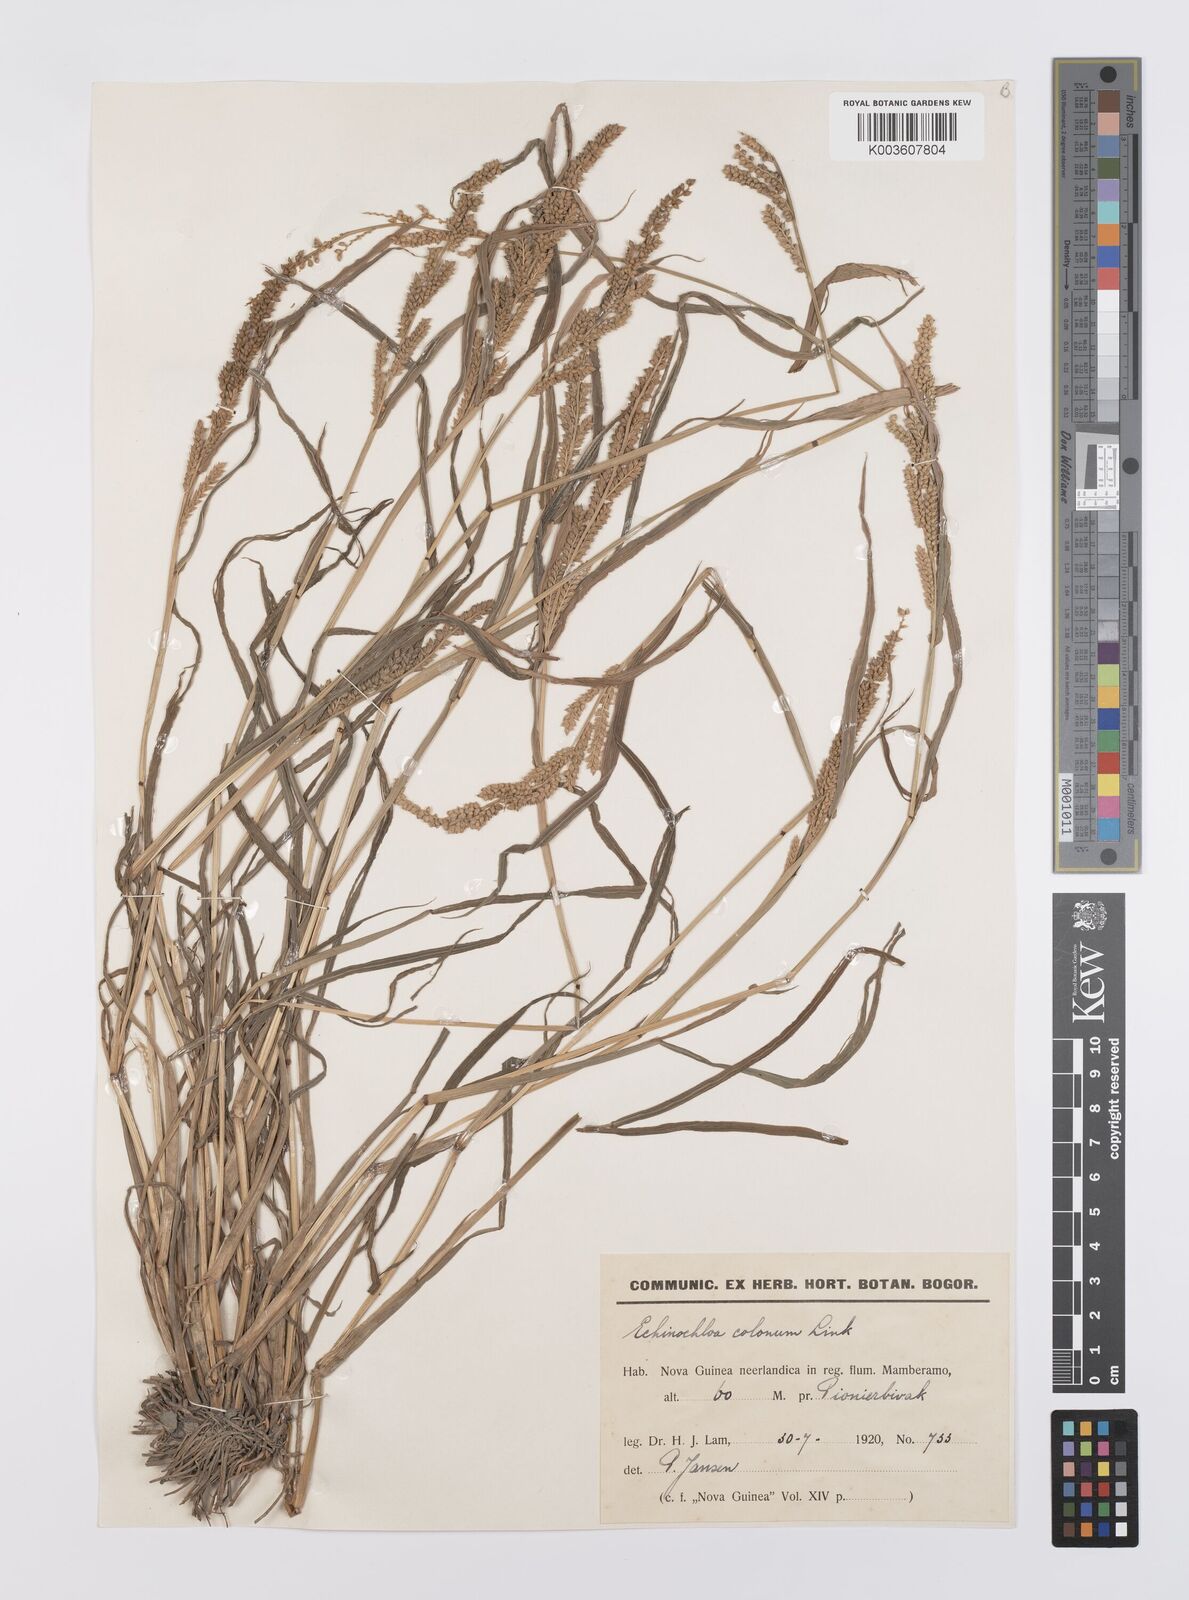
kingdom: Plantae
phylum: Tracheophyta
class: Liliopsida
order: Poales
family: Poaceae
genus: Echinochloa
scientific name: Echinochloa colonum
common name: Jungle rice
